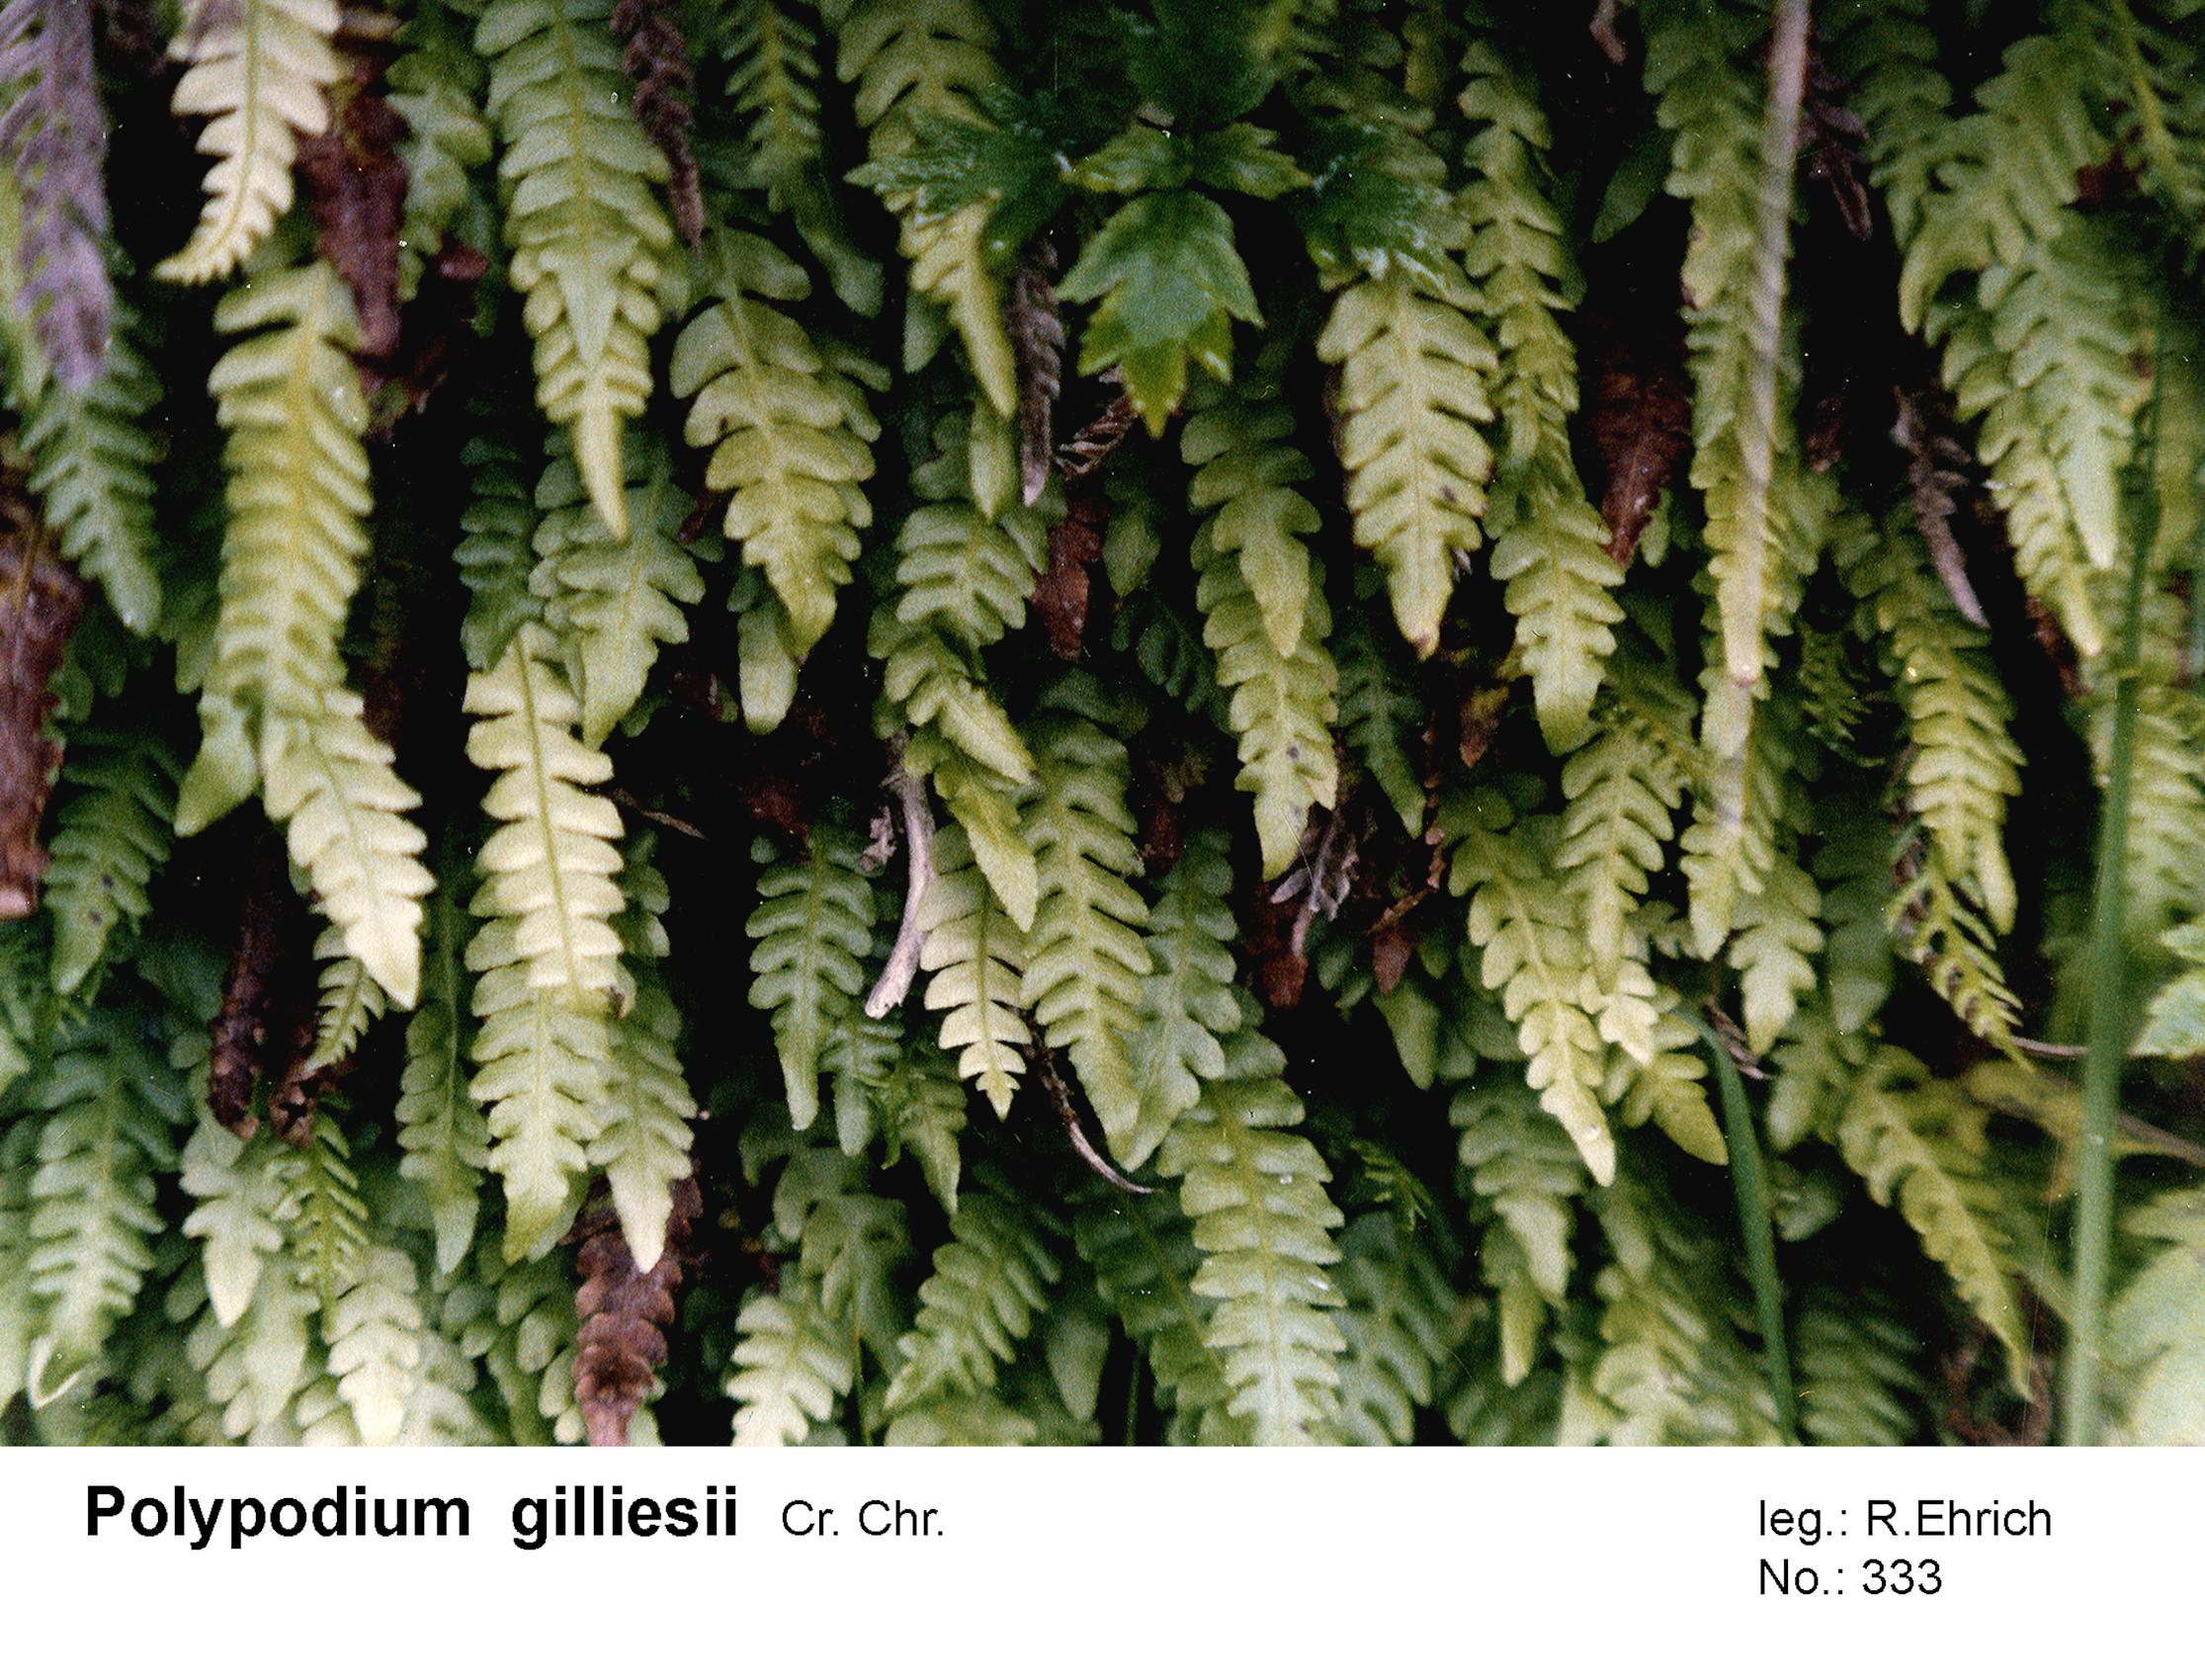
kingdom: Plantae
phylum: Tracheophyta
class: Polypodiopsida
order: Polypodiales
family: Polypodiaceae
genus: Serpocaulon
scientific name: Serpocaulon gilliesii
